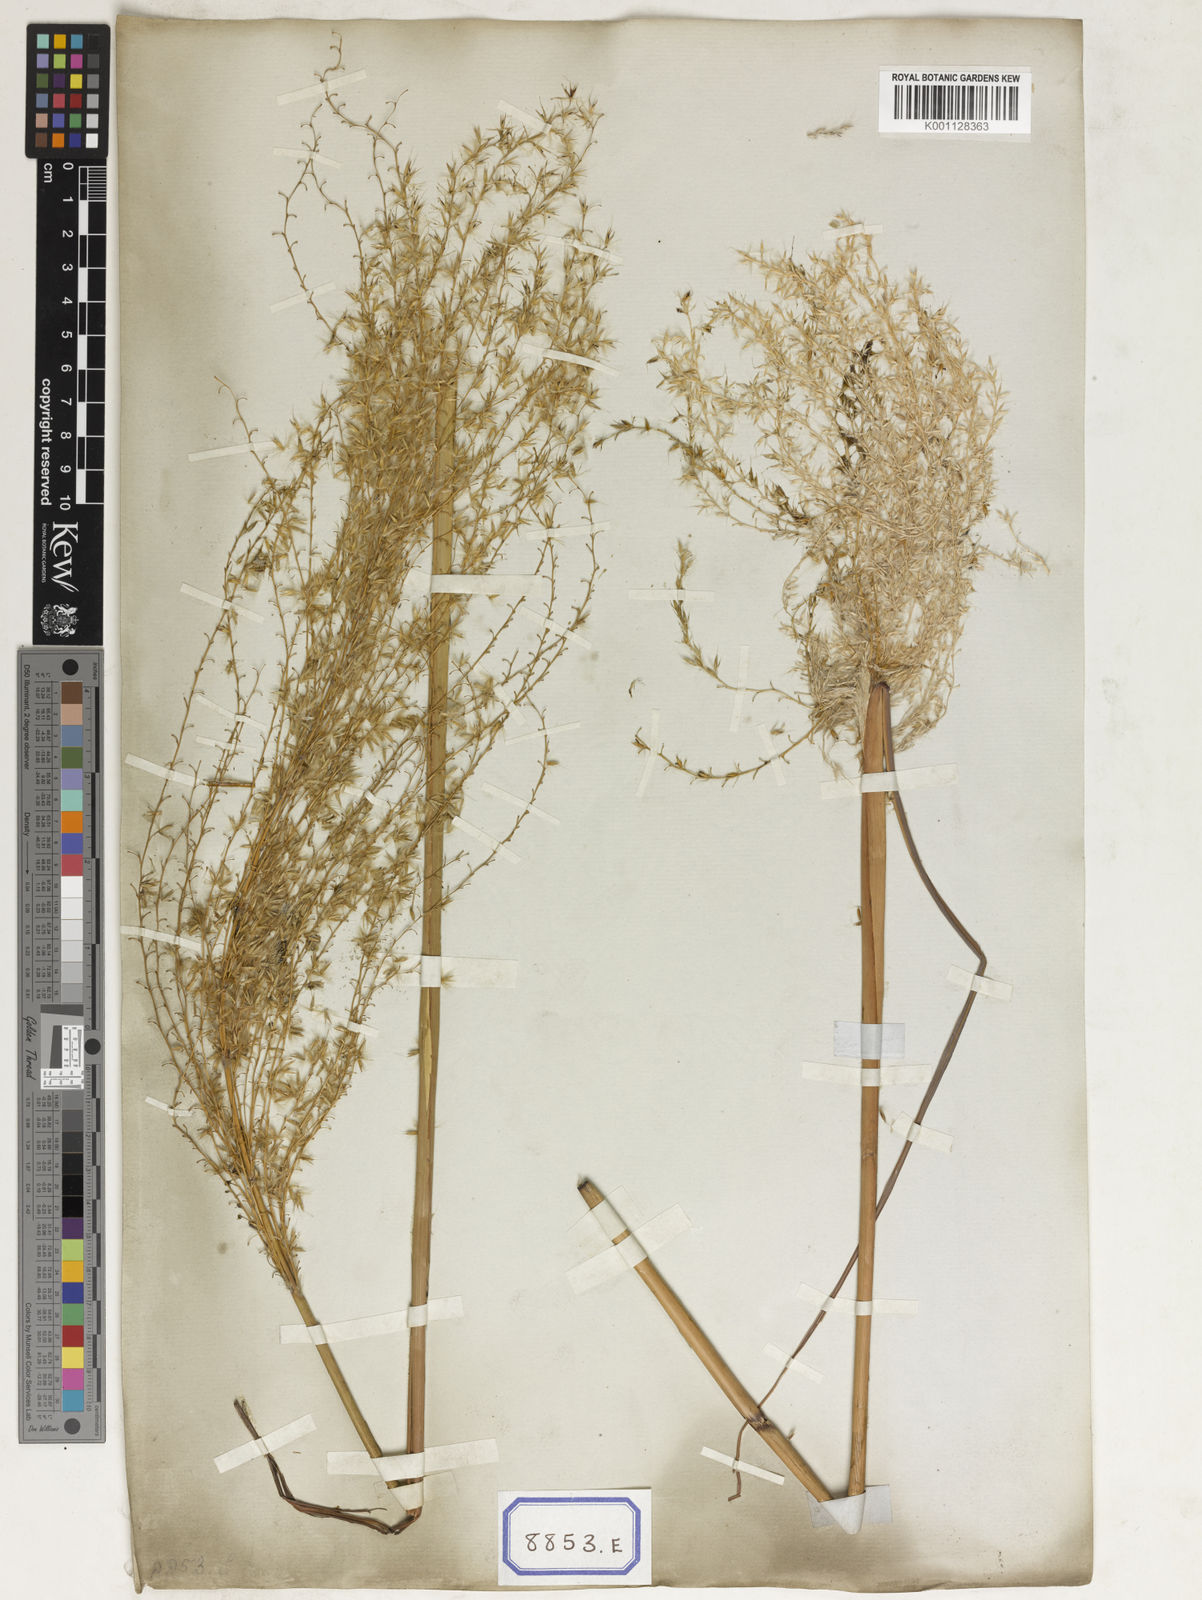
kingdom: Plantae
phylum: Tracheophyta
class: Liliopsida
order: Poales
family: Poaceae
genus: Saccharum
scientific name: Saccharum
